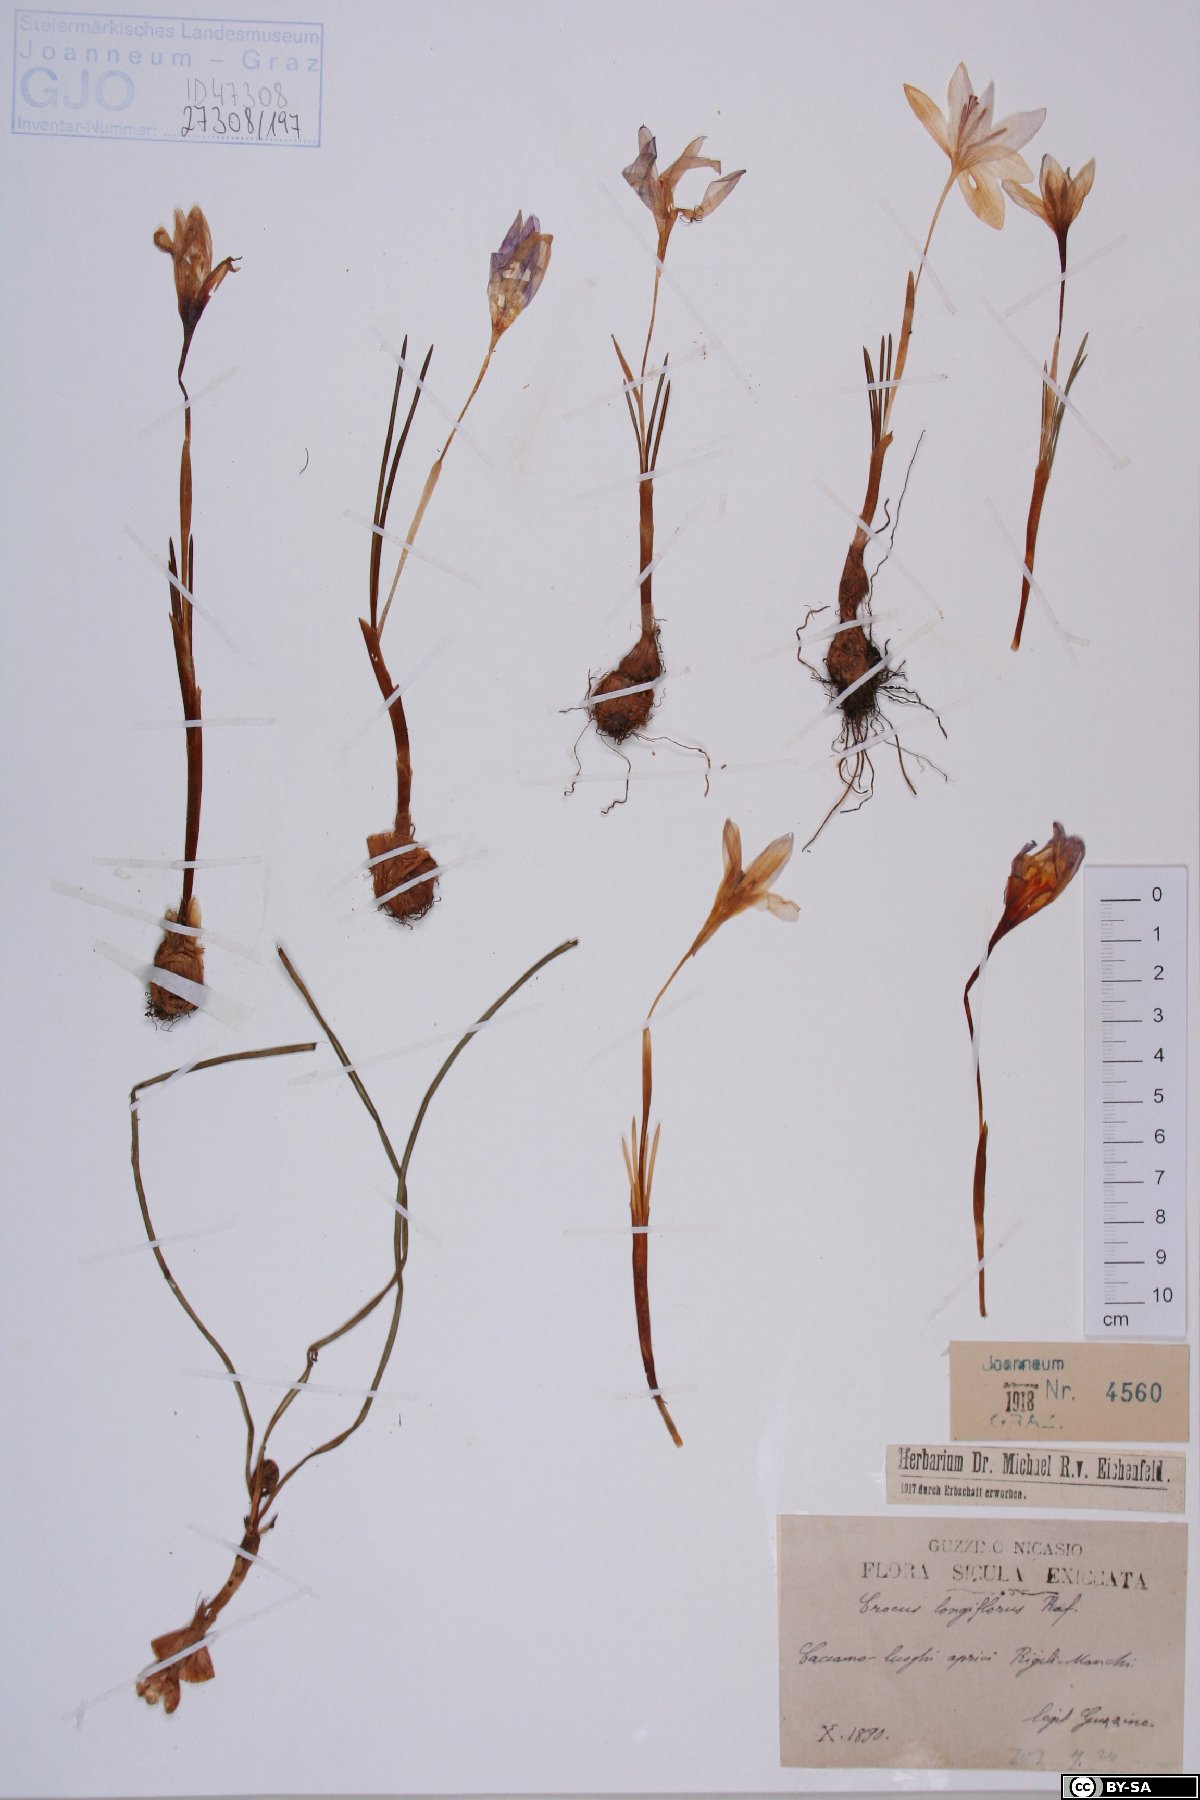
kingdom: Plantae
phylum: Tracheophyta
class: Liliopsida
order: Asparagales
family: Iridaceae
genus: Crocus
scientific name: Crocus longiflorus
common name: Italian crocus
